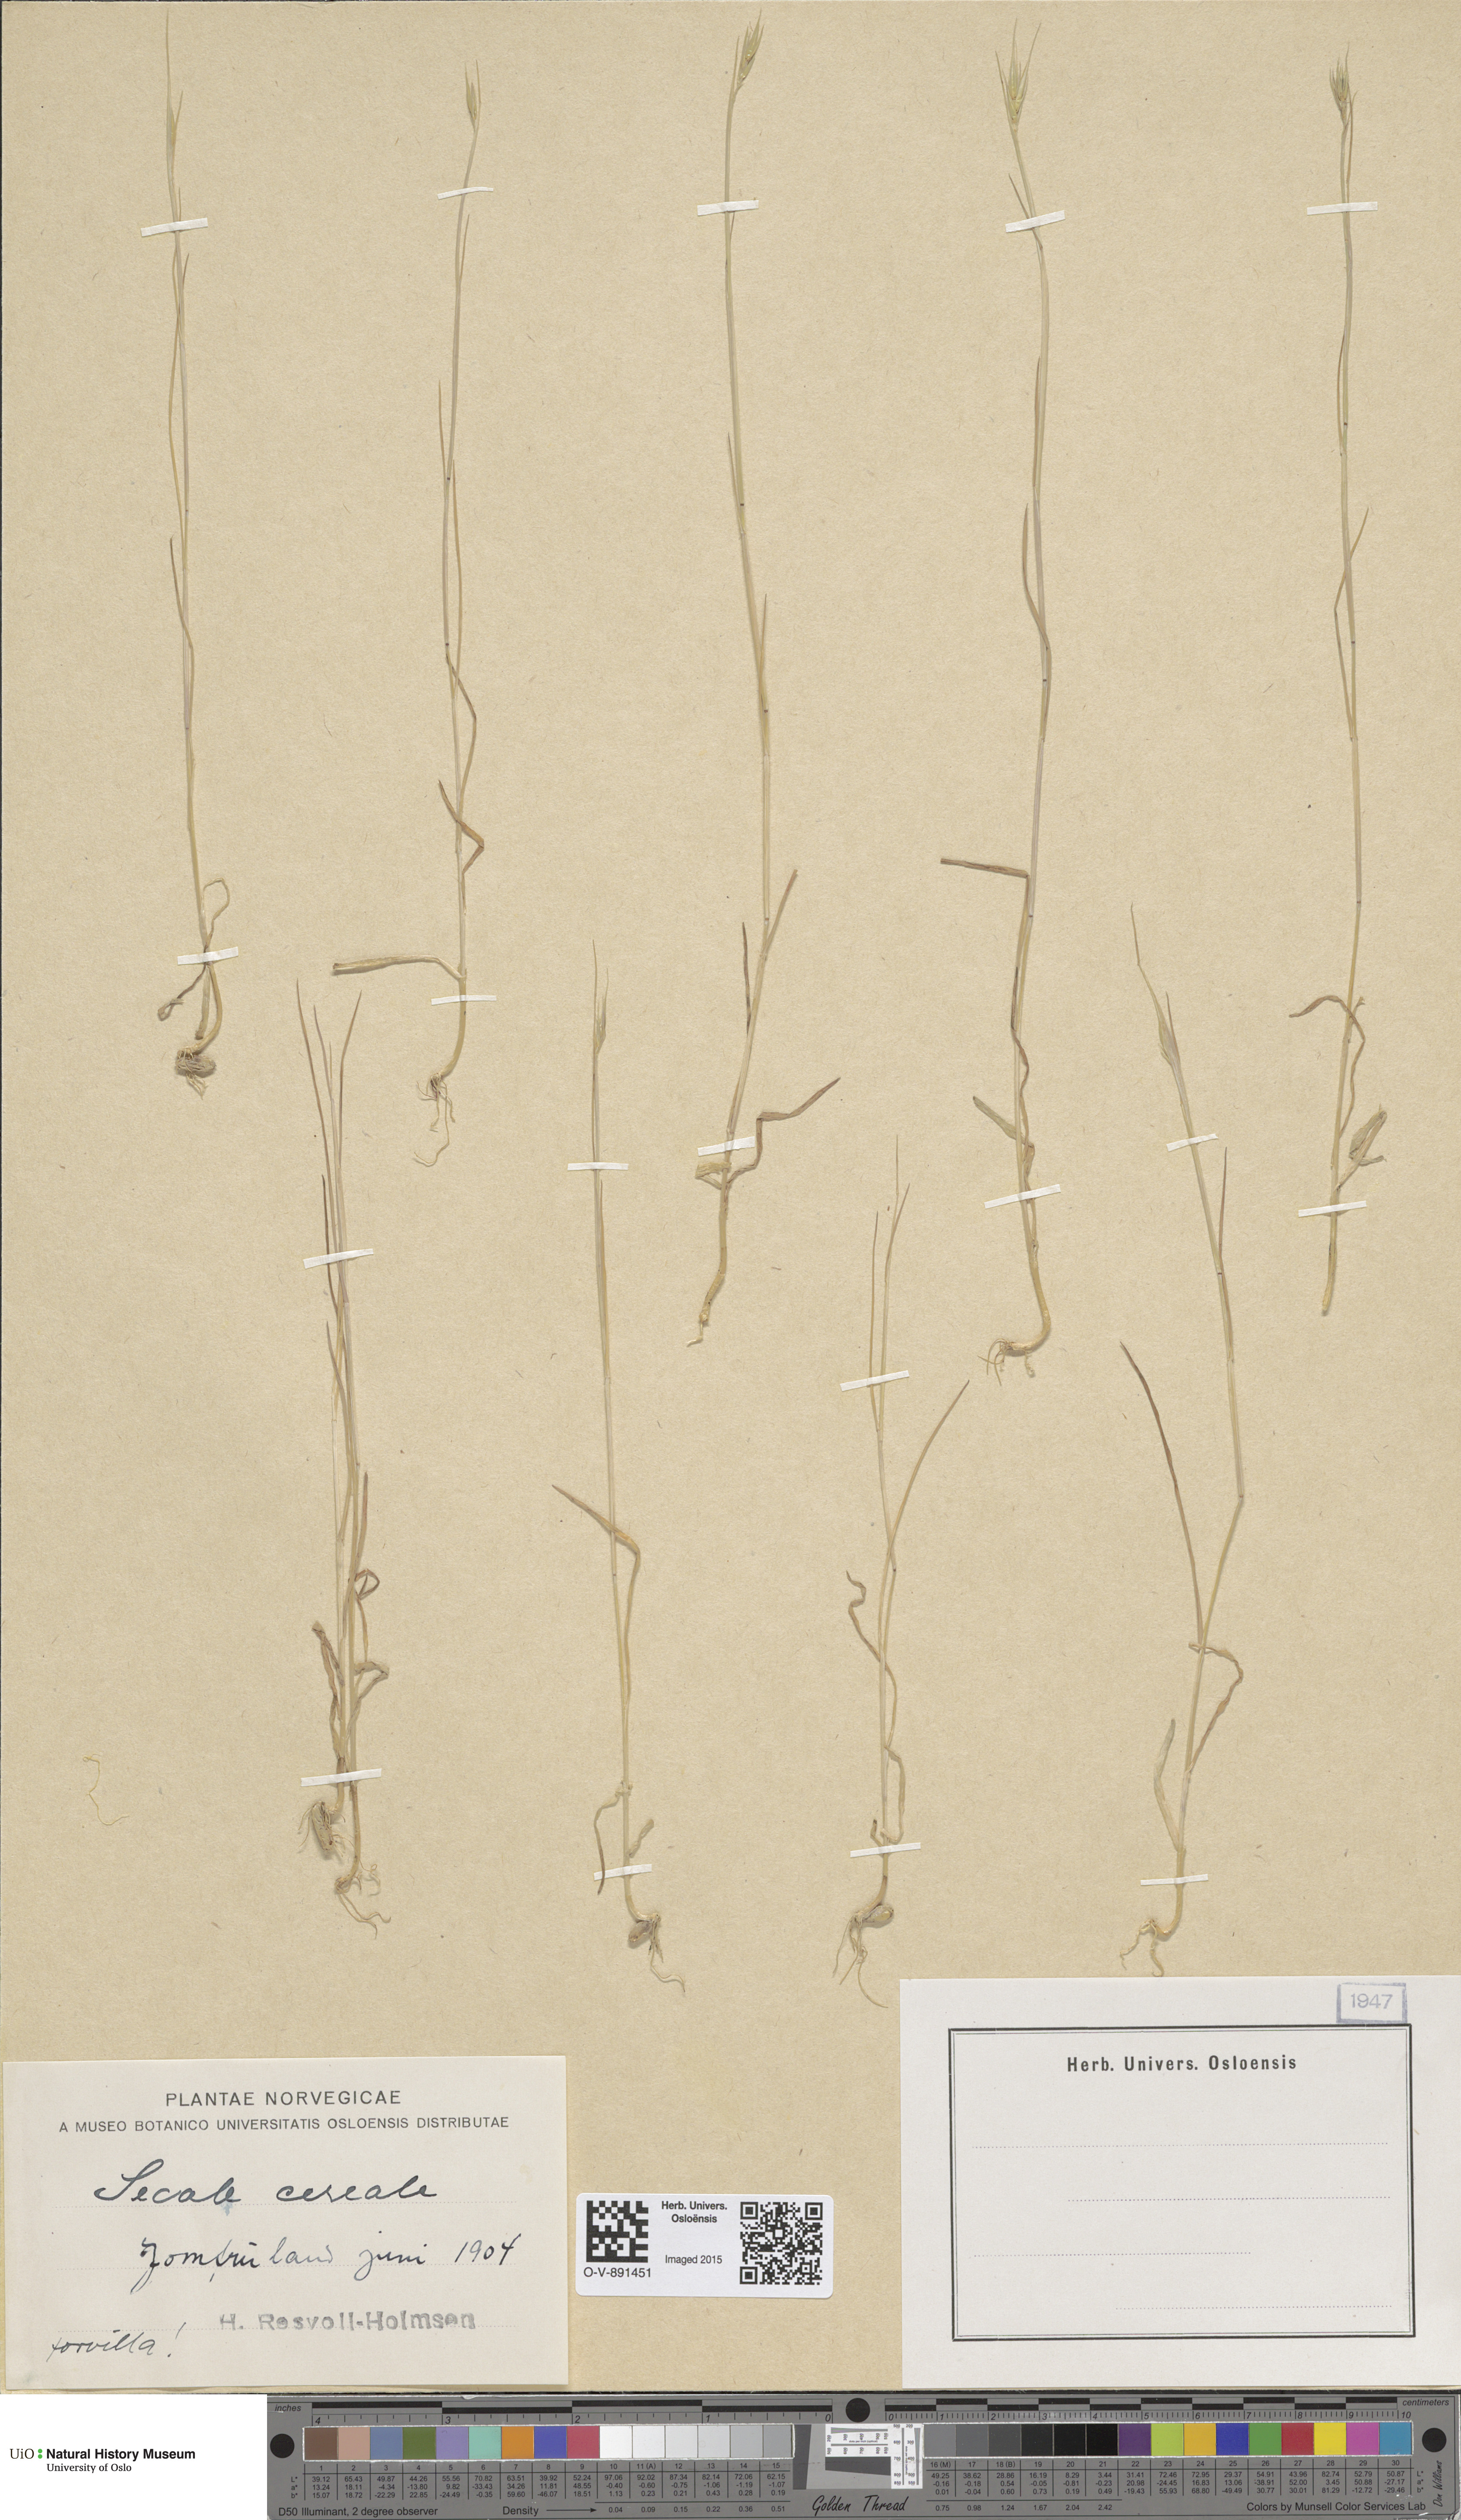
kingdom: Plantae
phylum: Tracheophyta
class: Liliopsida
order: Poales
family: Poaceae
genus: Secale
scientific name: Secale cereale
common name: Rye
